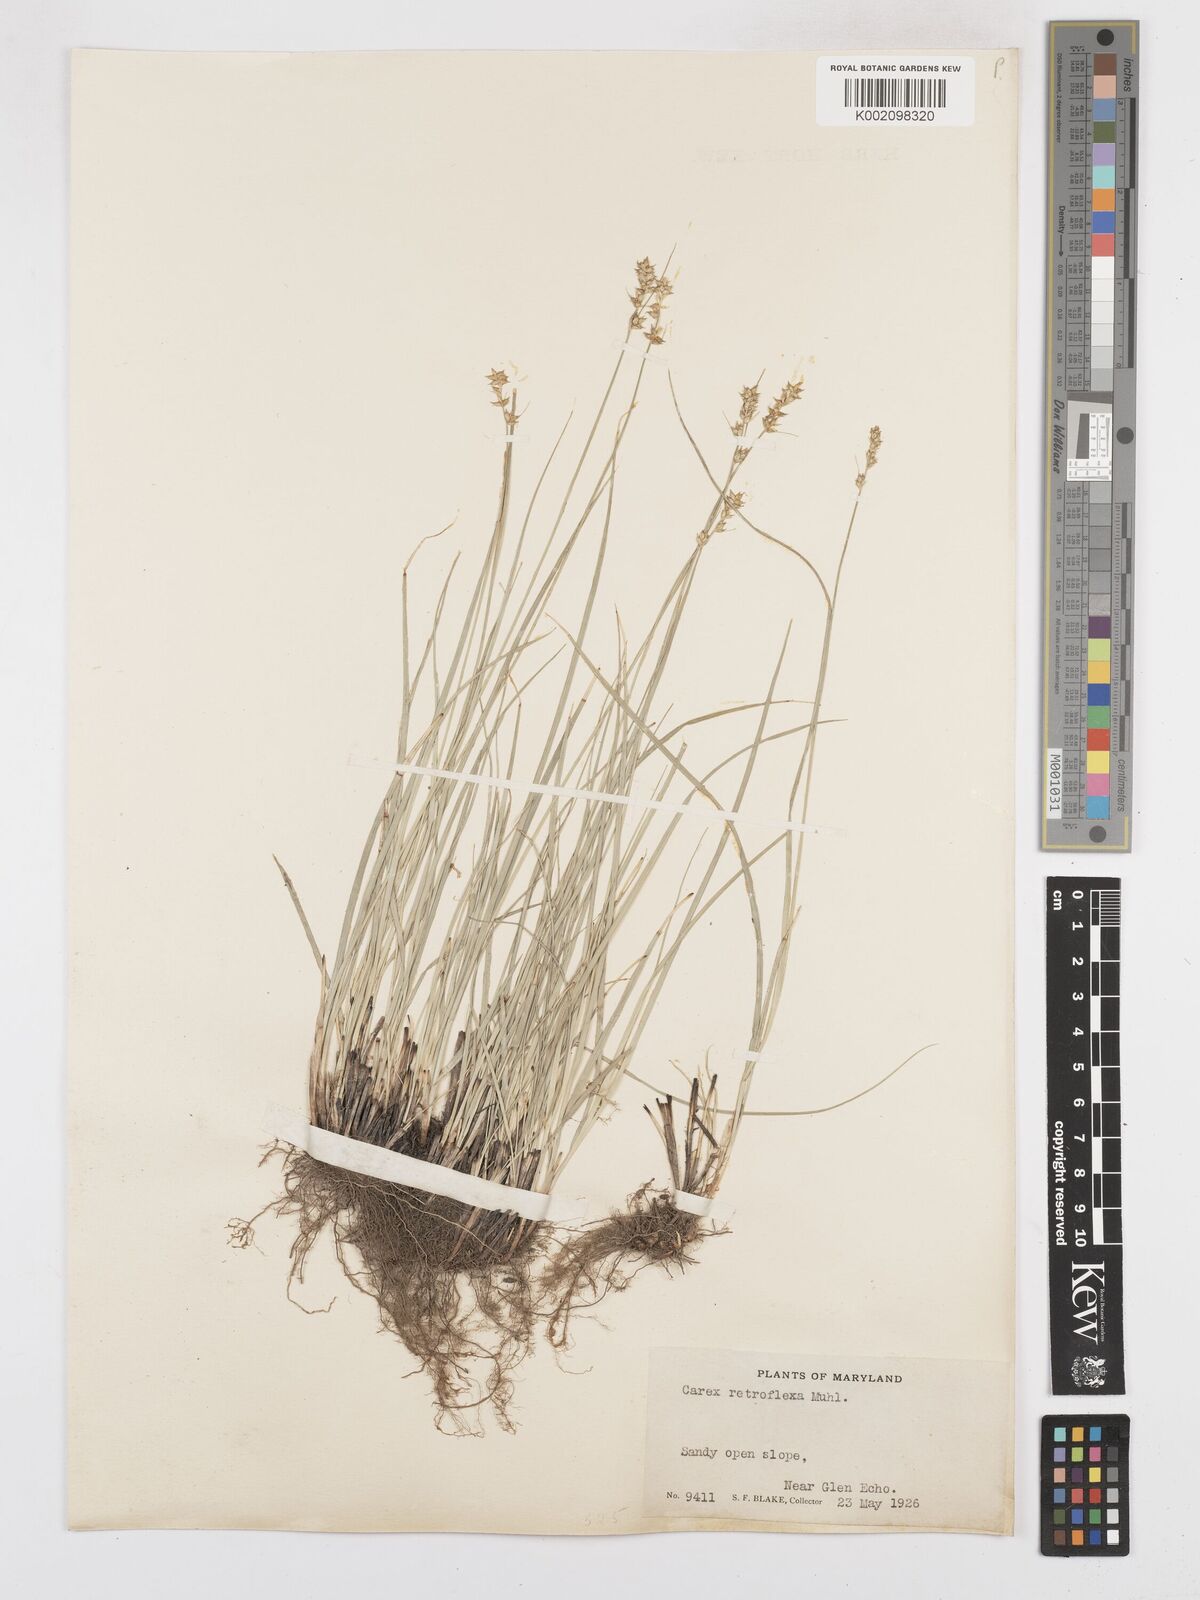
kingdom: Plantae
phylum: Tracheophyta
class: Liliopsida
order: Poales
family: Cyperaceae
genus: Carex
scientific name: Carex retroflexa
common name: Reflexed sedge
